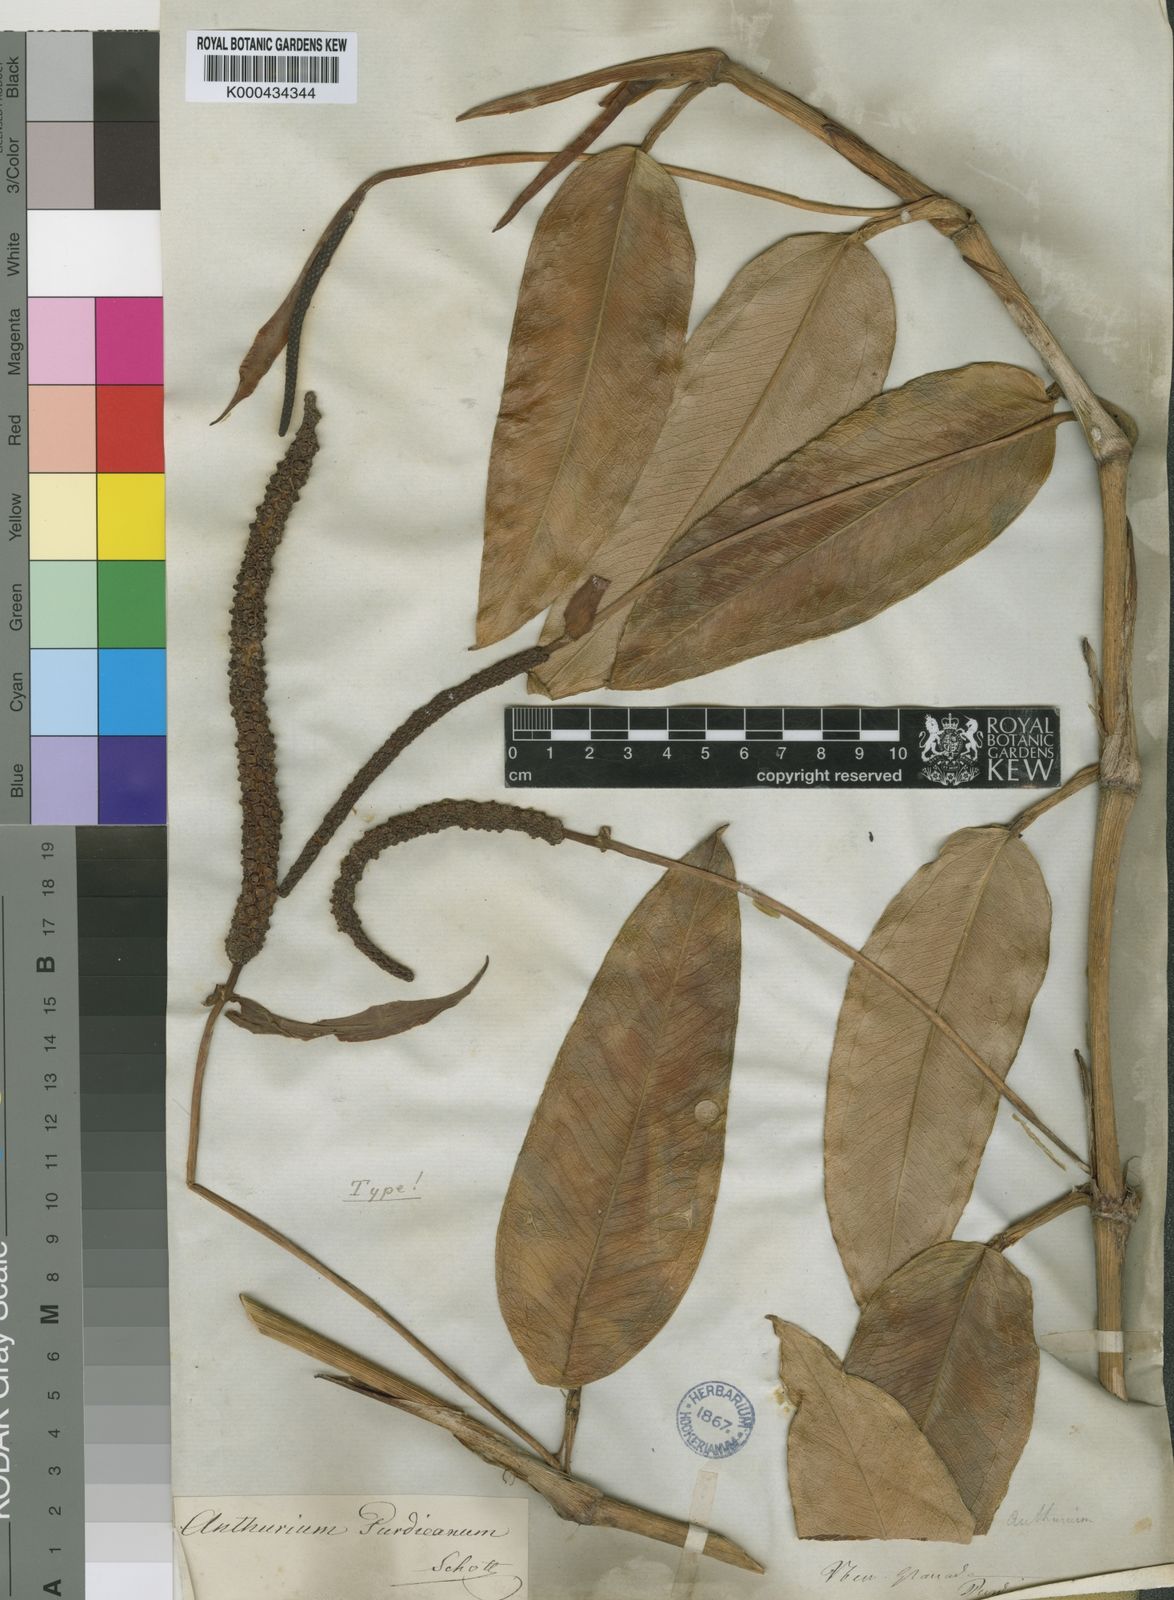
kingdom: Plantae
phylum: Tracheophyta
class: Liliopsida
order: Alismatales
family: Araceae
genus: Anthurium
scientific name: Anthurium purdieanum
